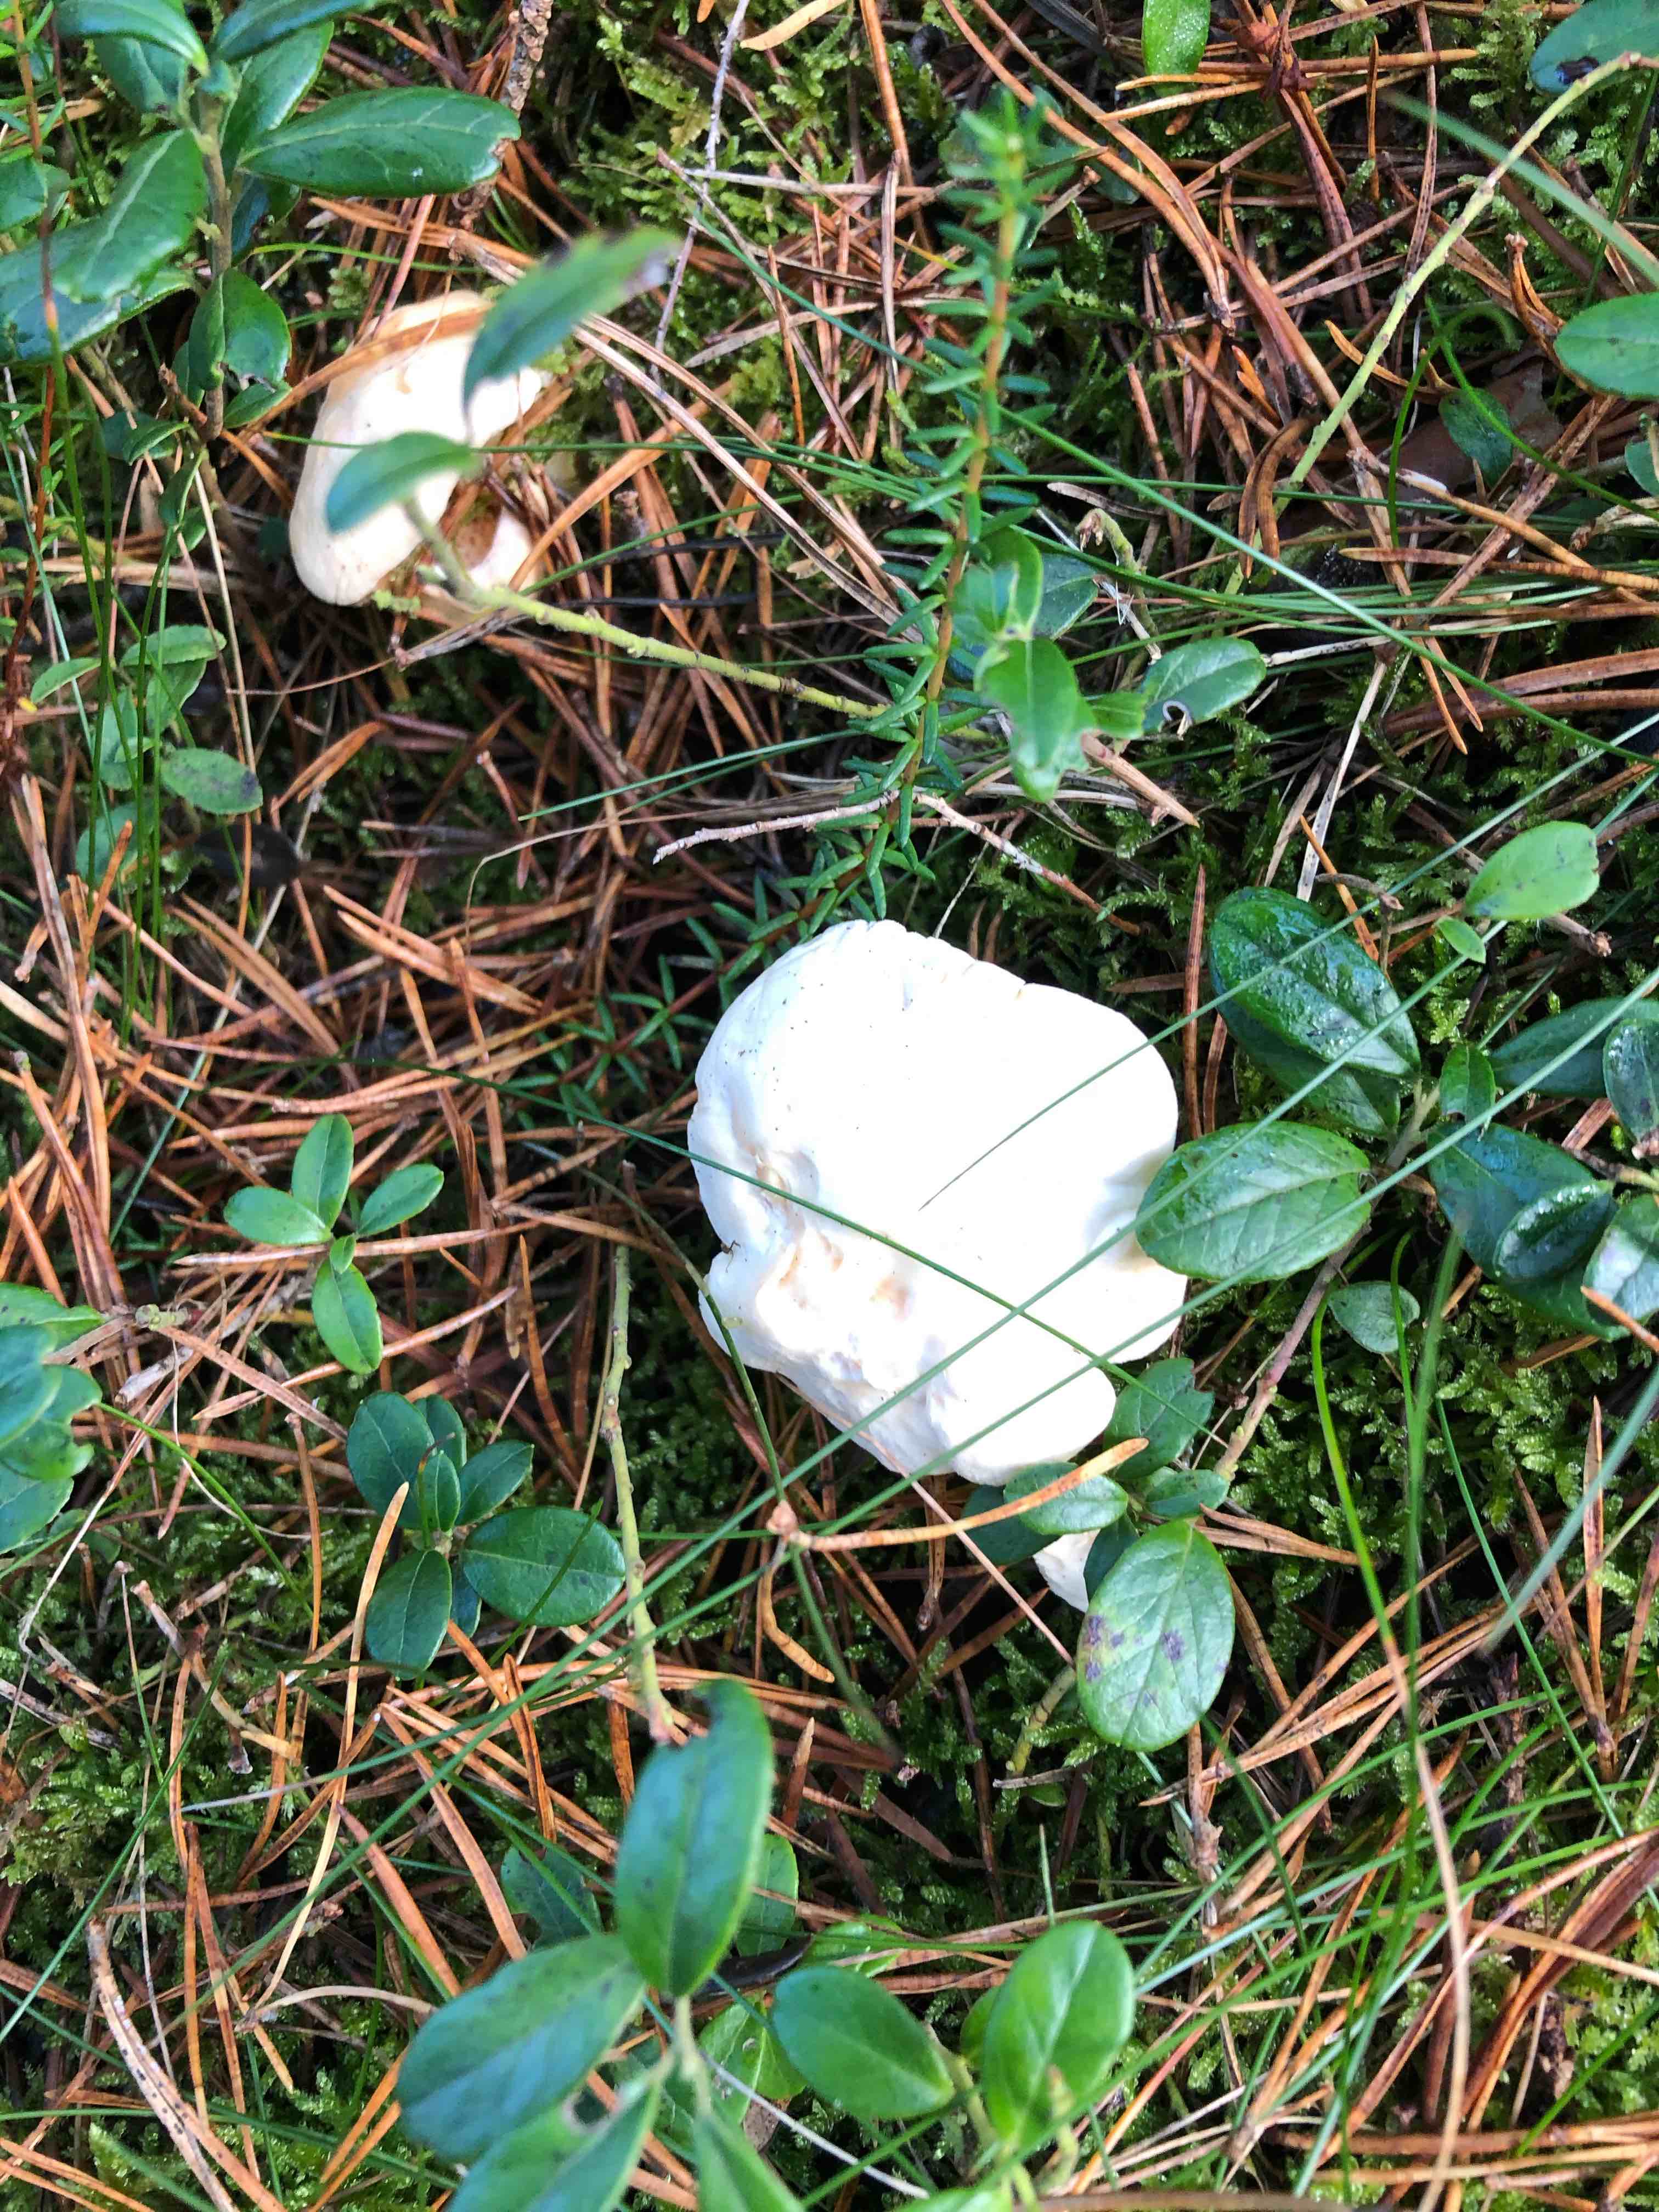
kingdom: Fungi
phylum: Basidiomycota
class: Agaricomycetes
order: Cantharellales
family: Hydnaceae
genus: Hydnum
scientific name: Hydnum repandum
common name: almindelig pigsvamp
